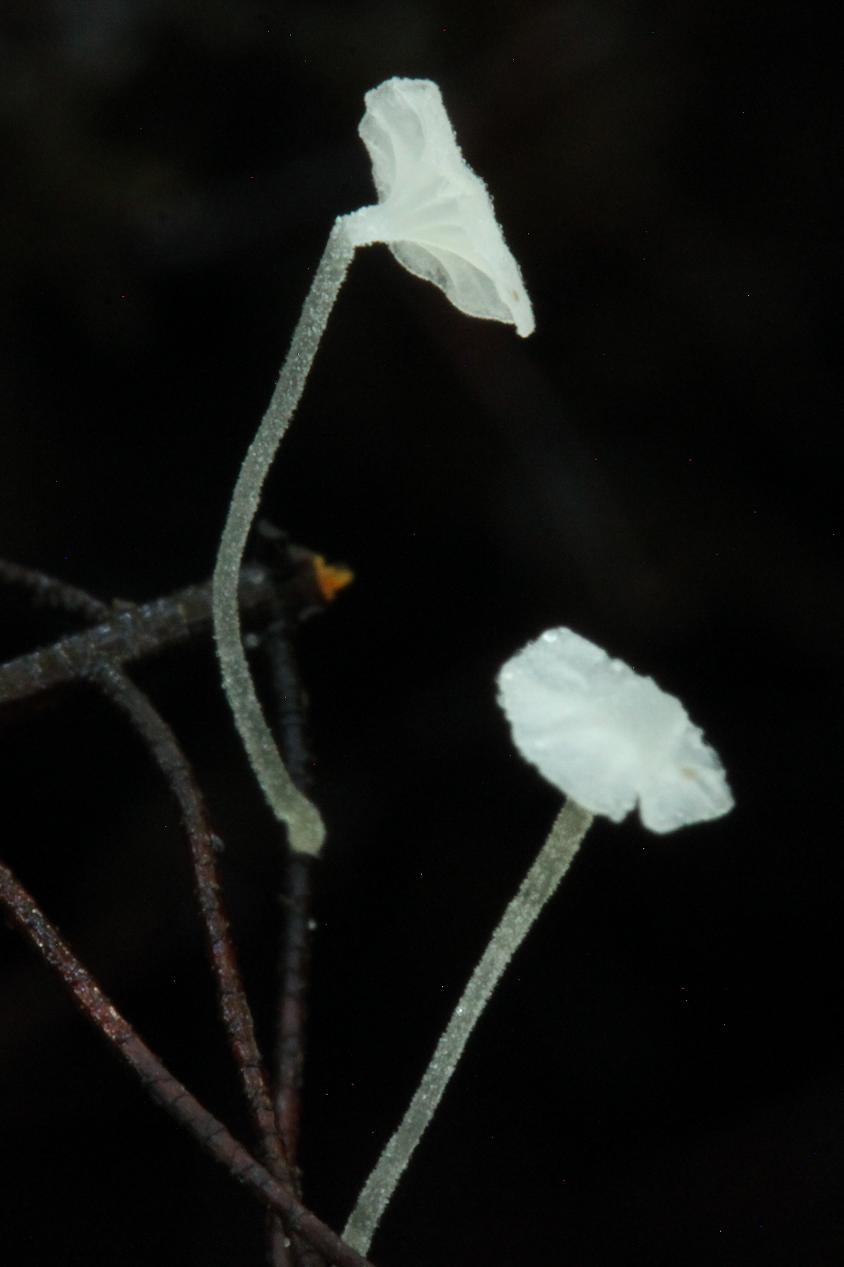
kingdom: Fungi
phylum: Basidiomycota
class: Agaricomycetes
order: Agaricales
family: Mycenaceae
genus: Hemimycena
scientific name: Hemimycena mauretanica
